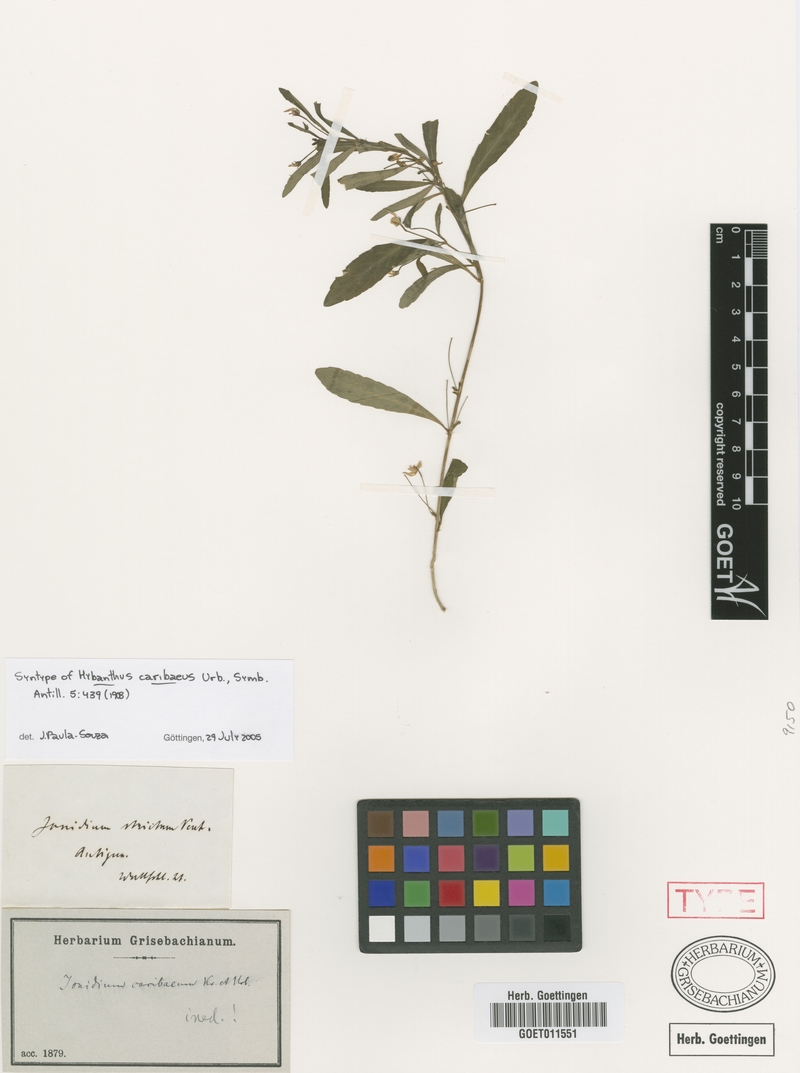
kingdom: Plantae
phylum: Tracheophyta
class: Magnoliopsida
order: Malpighiales
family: Violaceae
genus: Pombalia
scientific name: Pombalia linearifolia
